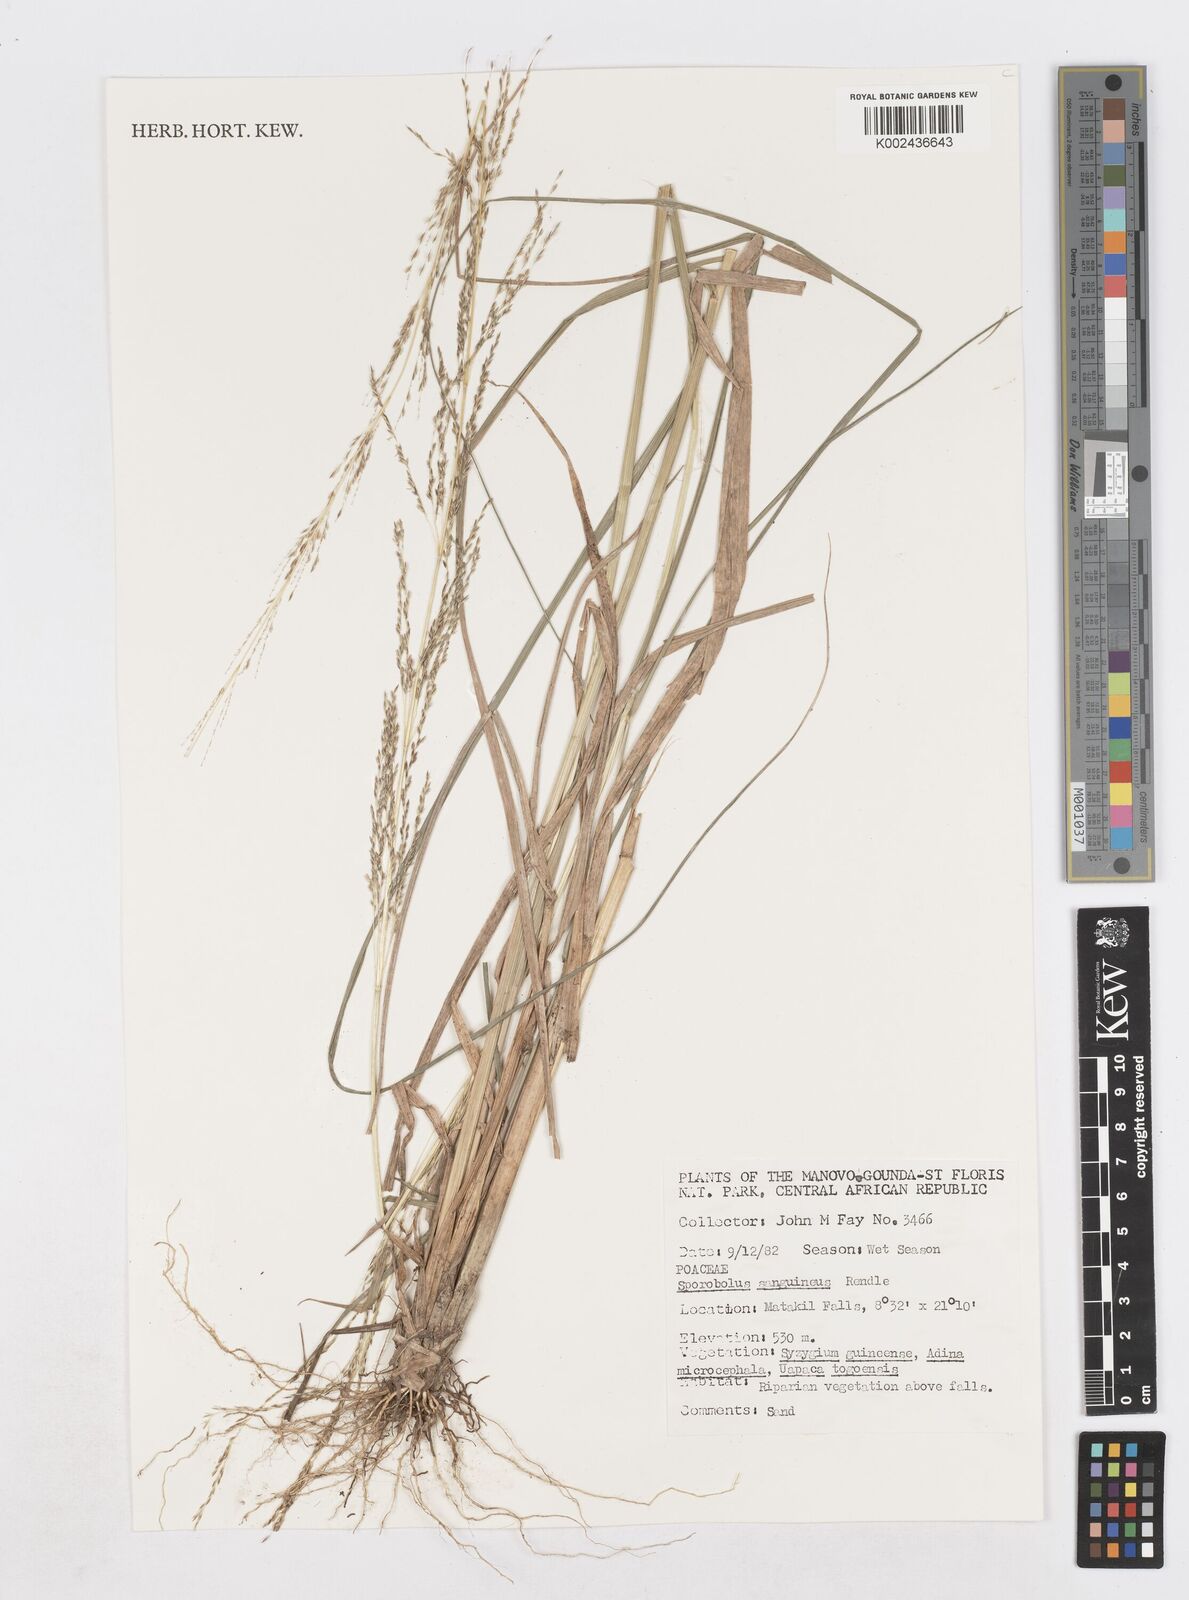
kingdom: Plantae
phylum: Tracheophyta
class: Liliopsida
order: Poales
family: Poaceae
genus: Sporobolus
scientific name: Sporobolus sanguineus
